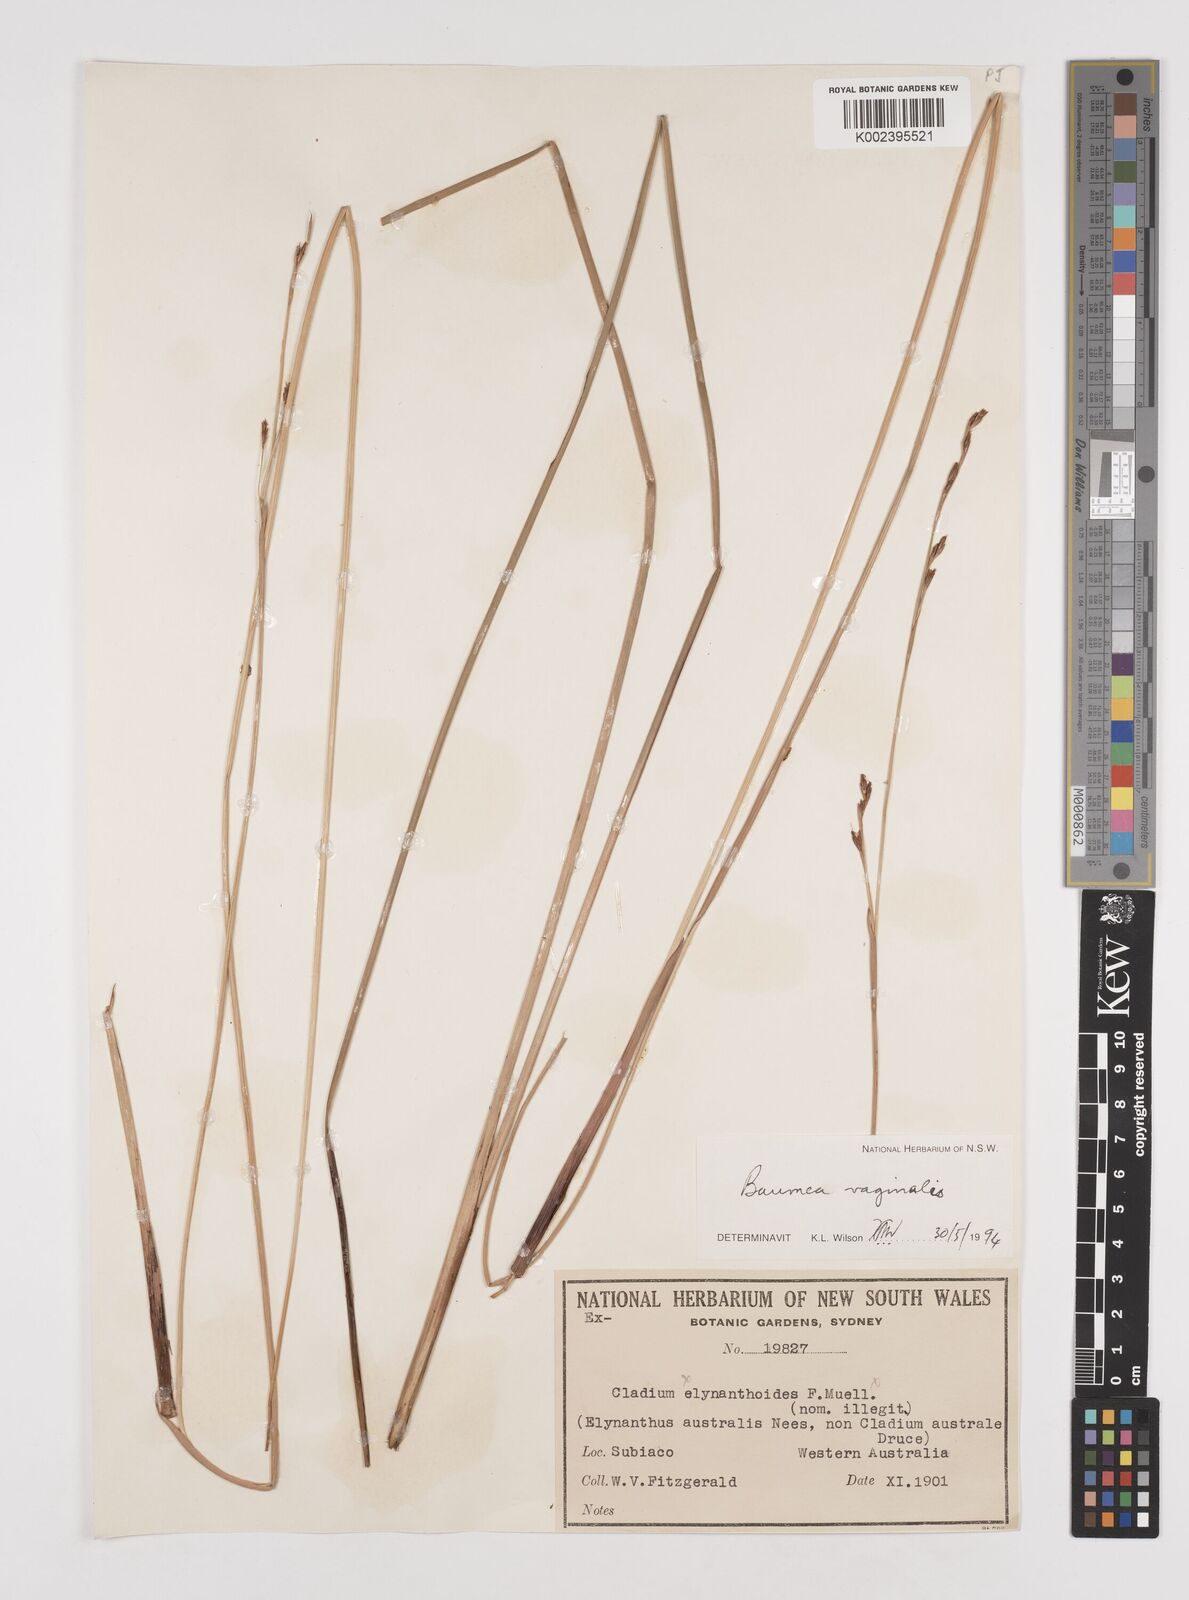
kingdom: Plantae
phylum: Tracheophyta
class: Liliopsida
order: Poales
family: Cyperaceae
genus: Machaerina
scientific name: Machaerina vaginalis
